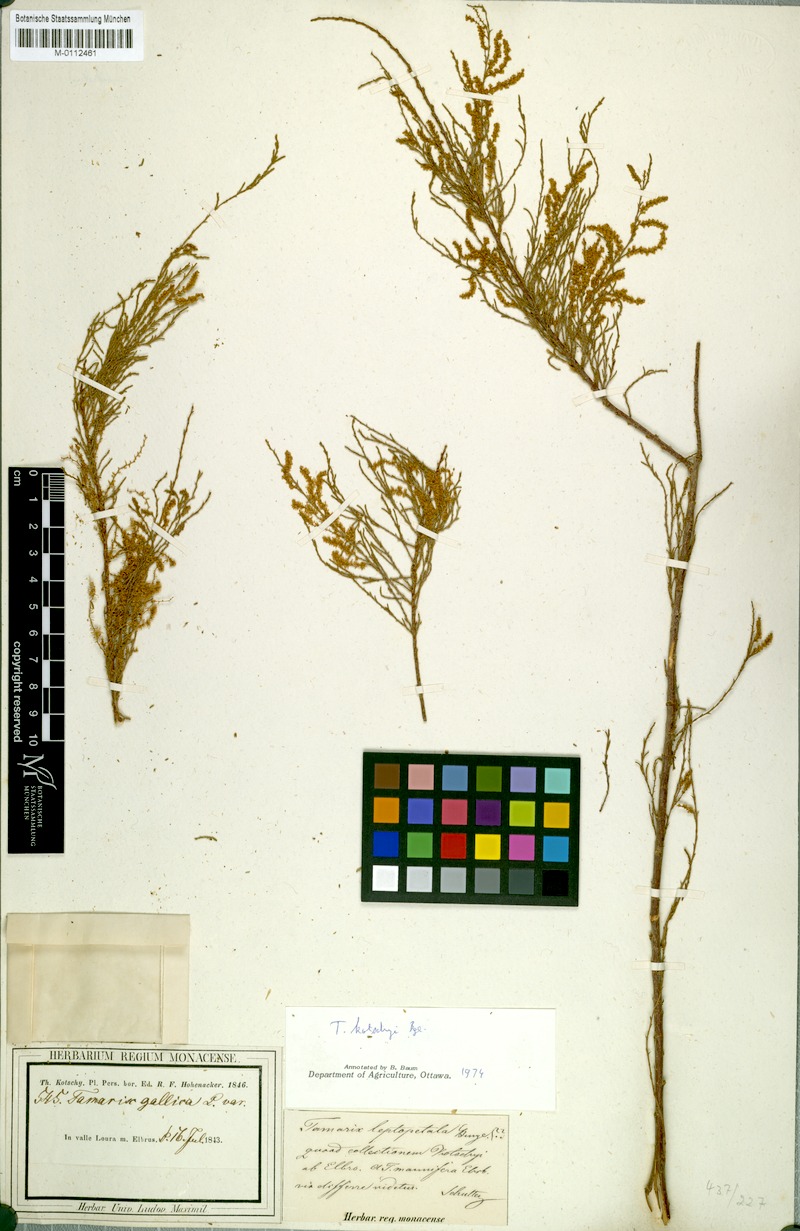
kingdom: Plantae
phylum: Tracheophyta
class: Magnoliopsida
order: Caryophyllales
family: Tamaricaceae
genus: Tamarix
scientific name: Tamarix kotschyi
